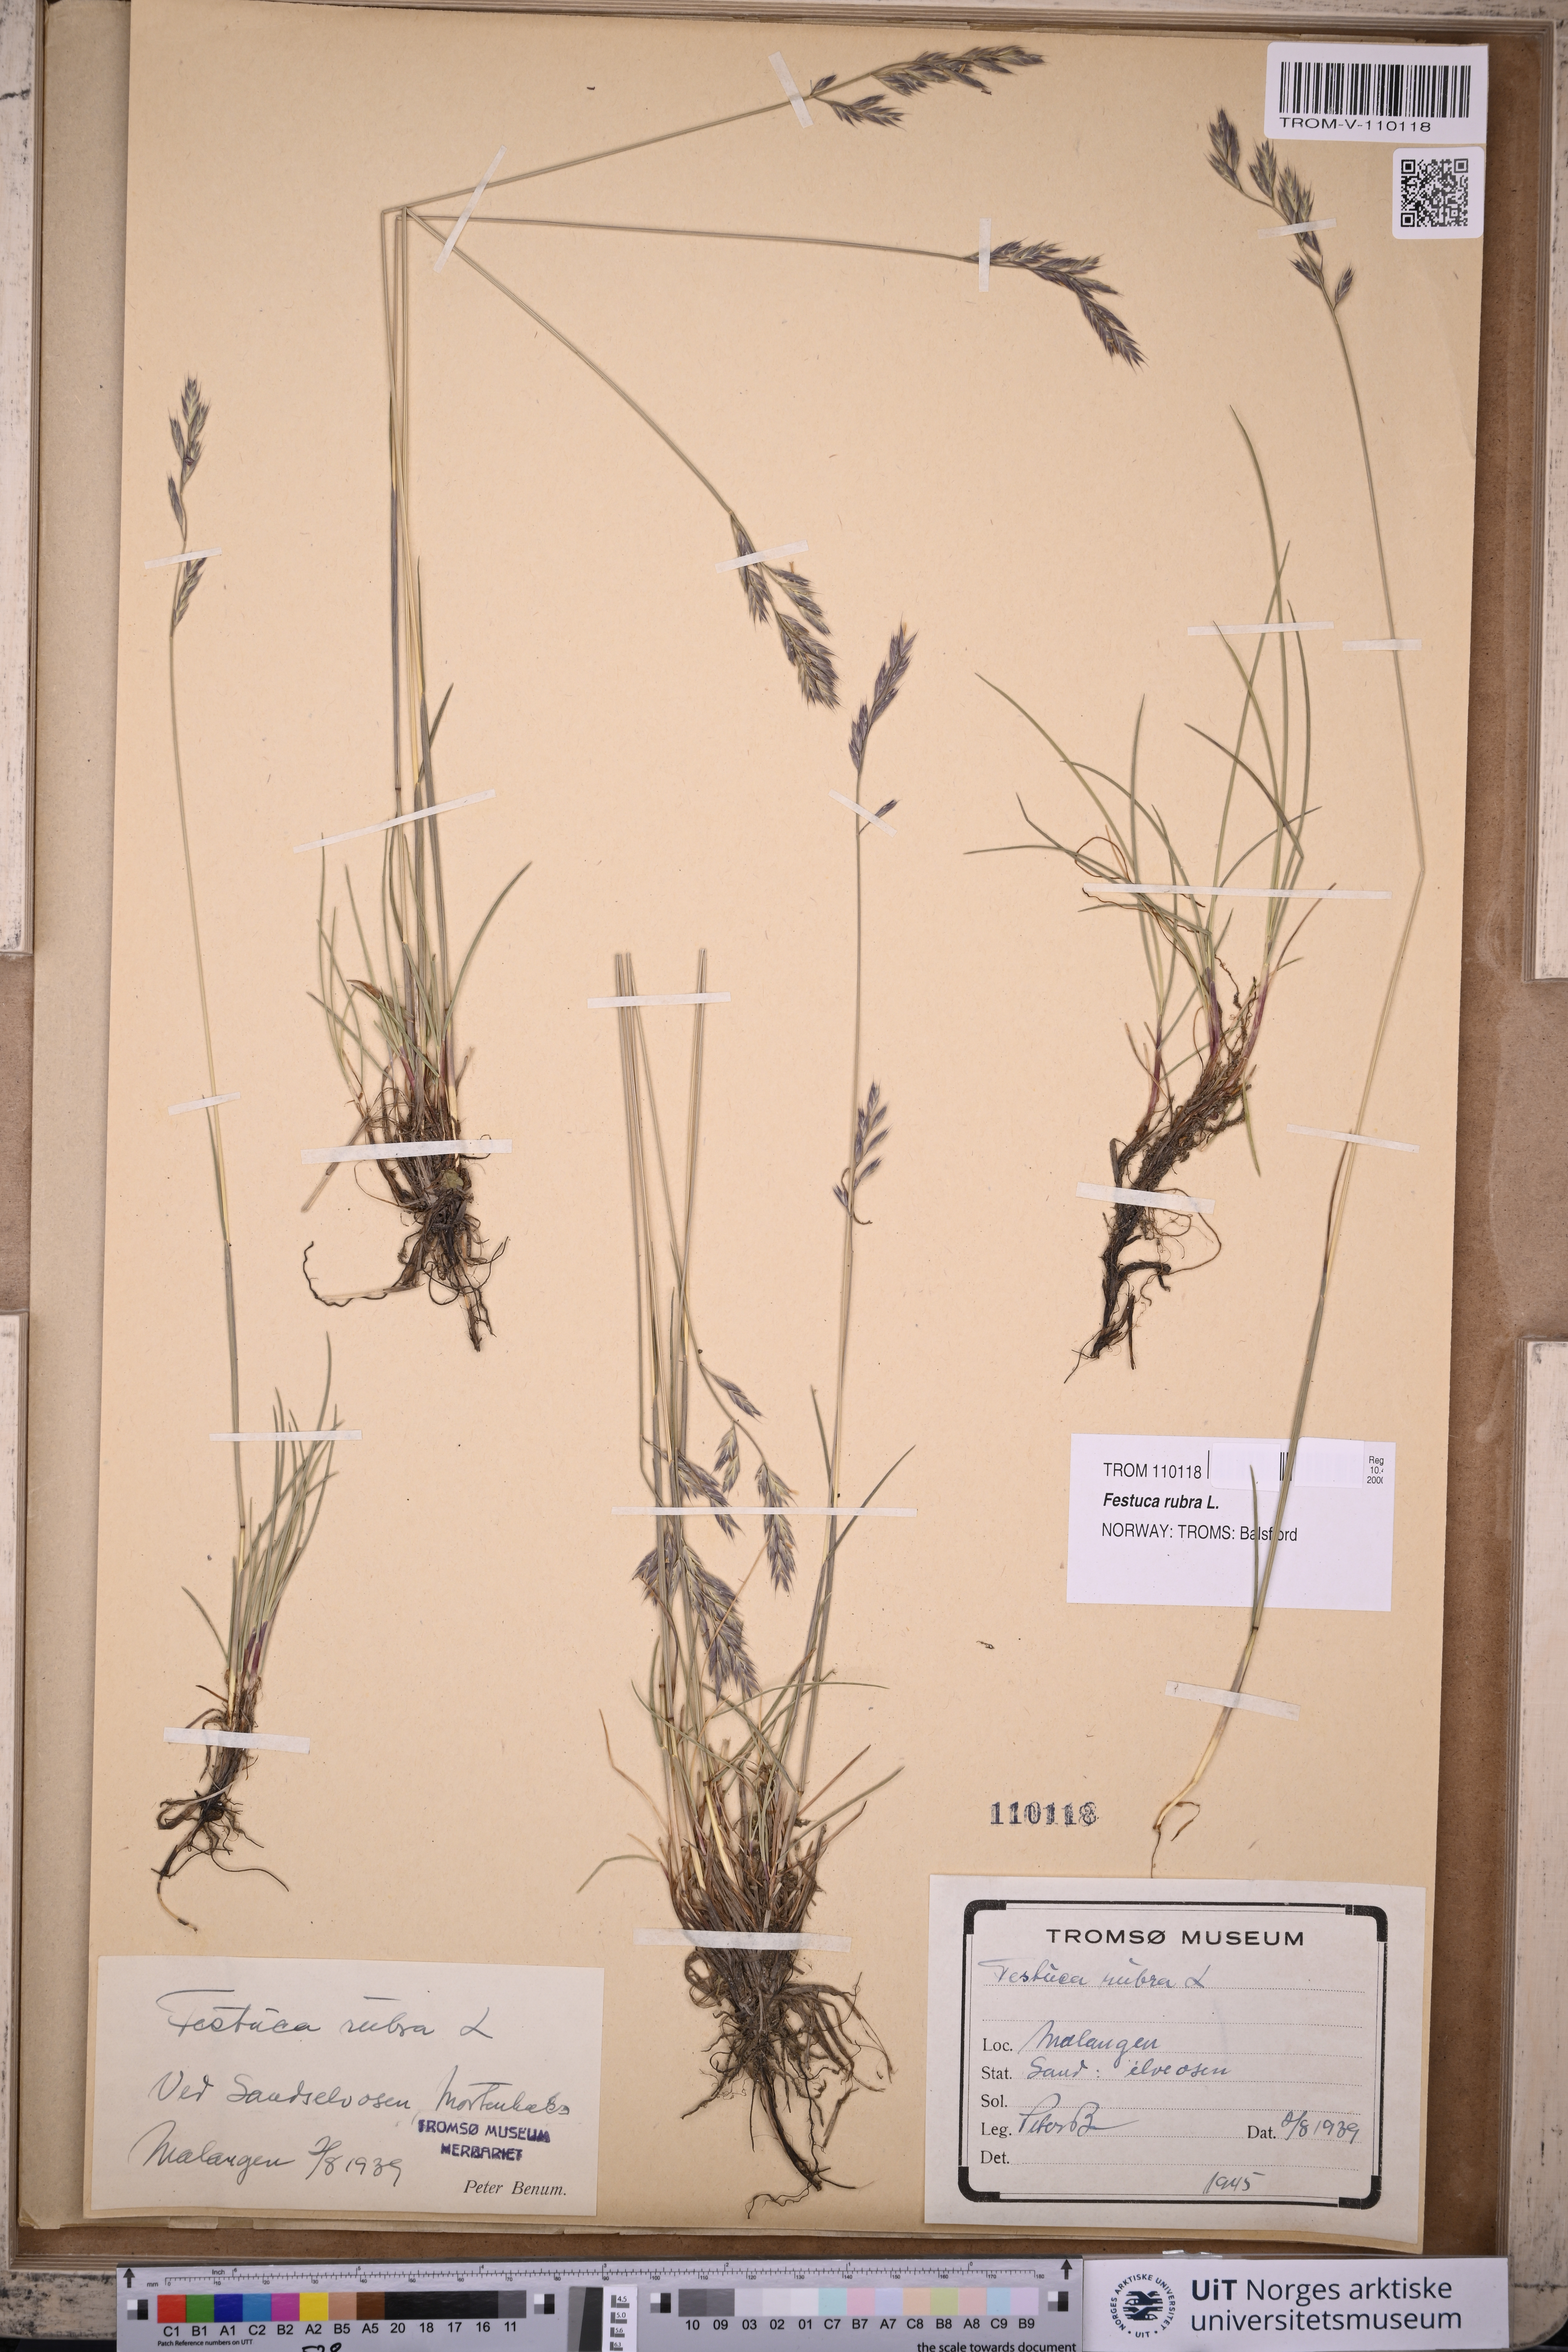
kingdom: Plantae
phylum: Tracheophyta
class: Liliopsida
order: Poales
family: Poaceae
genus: Festuca
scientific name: Festuca rubra
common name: Red fescue
